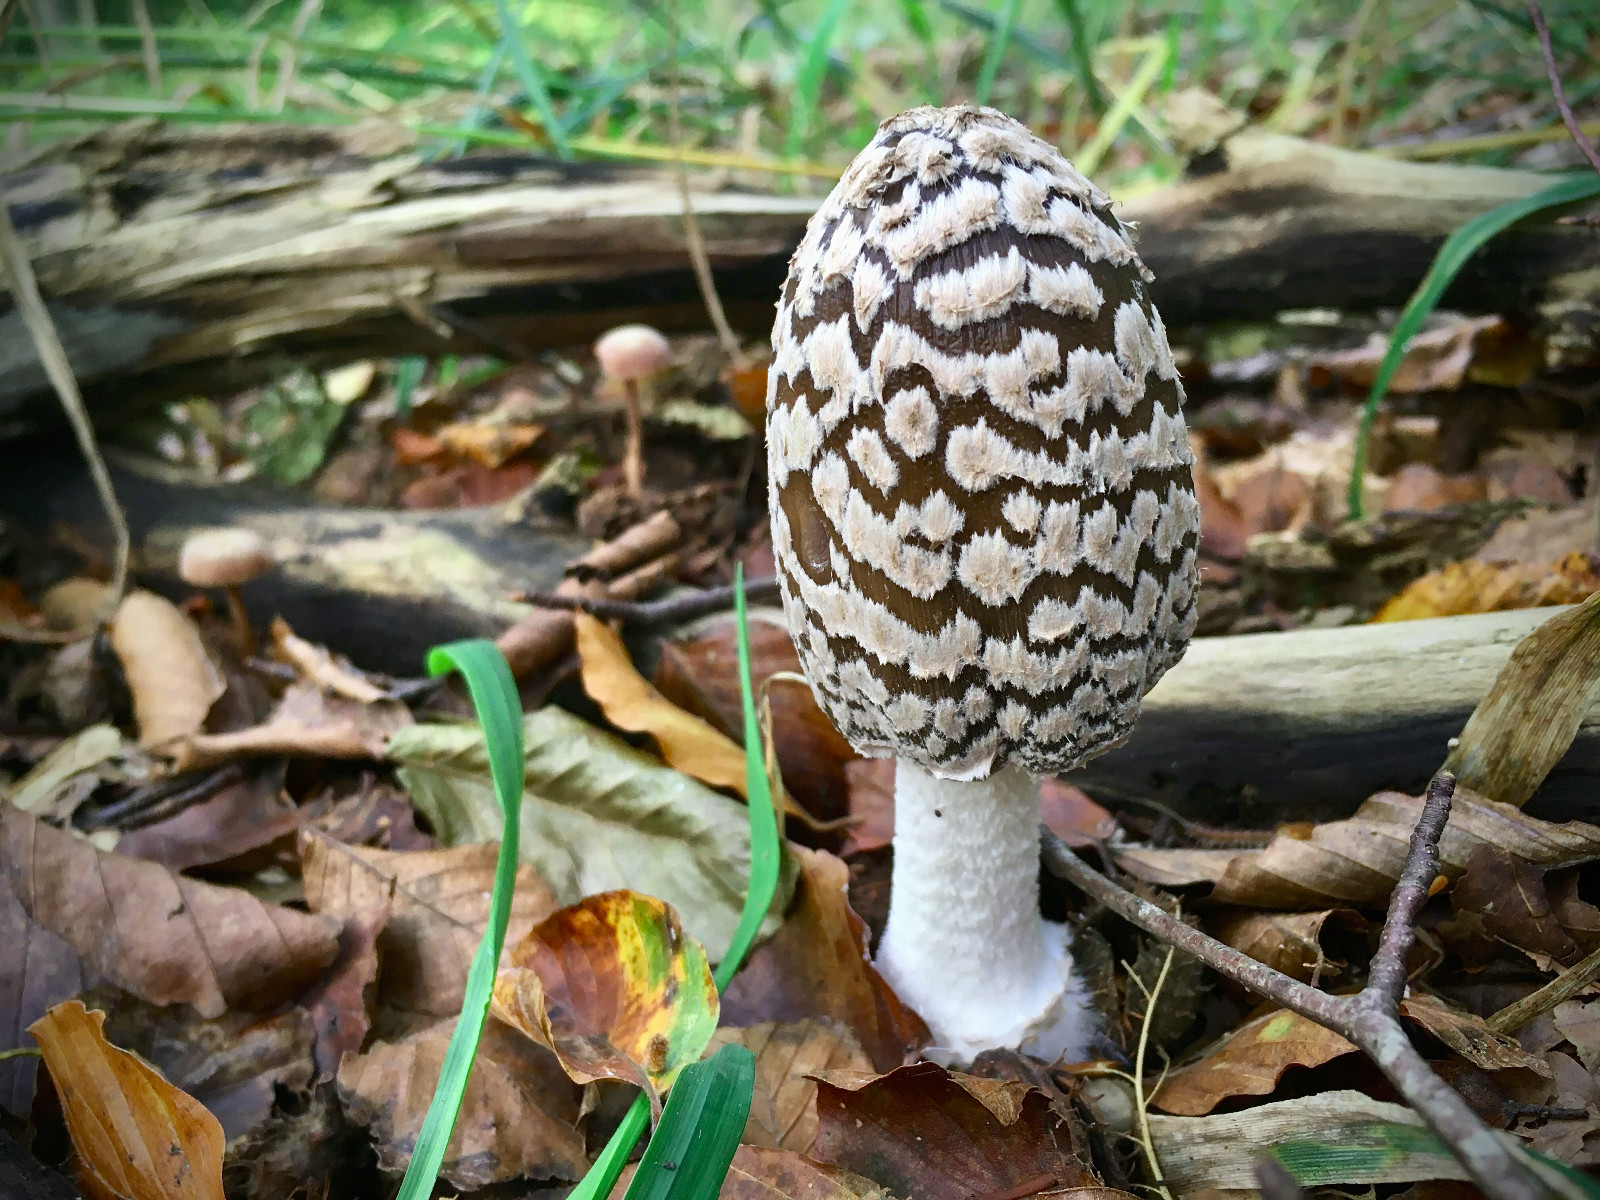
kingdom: Fungi
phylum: Basidiomycota
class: Agaricomycetes
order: Agaricales
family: Psathyrellaceae
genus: Coprinopsis
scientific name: Coprinopsis picacea
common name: skade-blækhat
